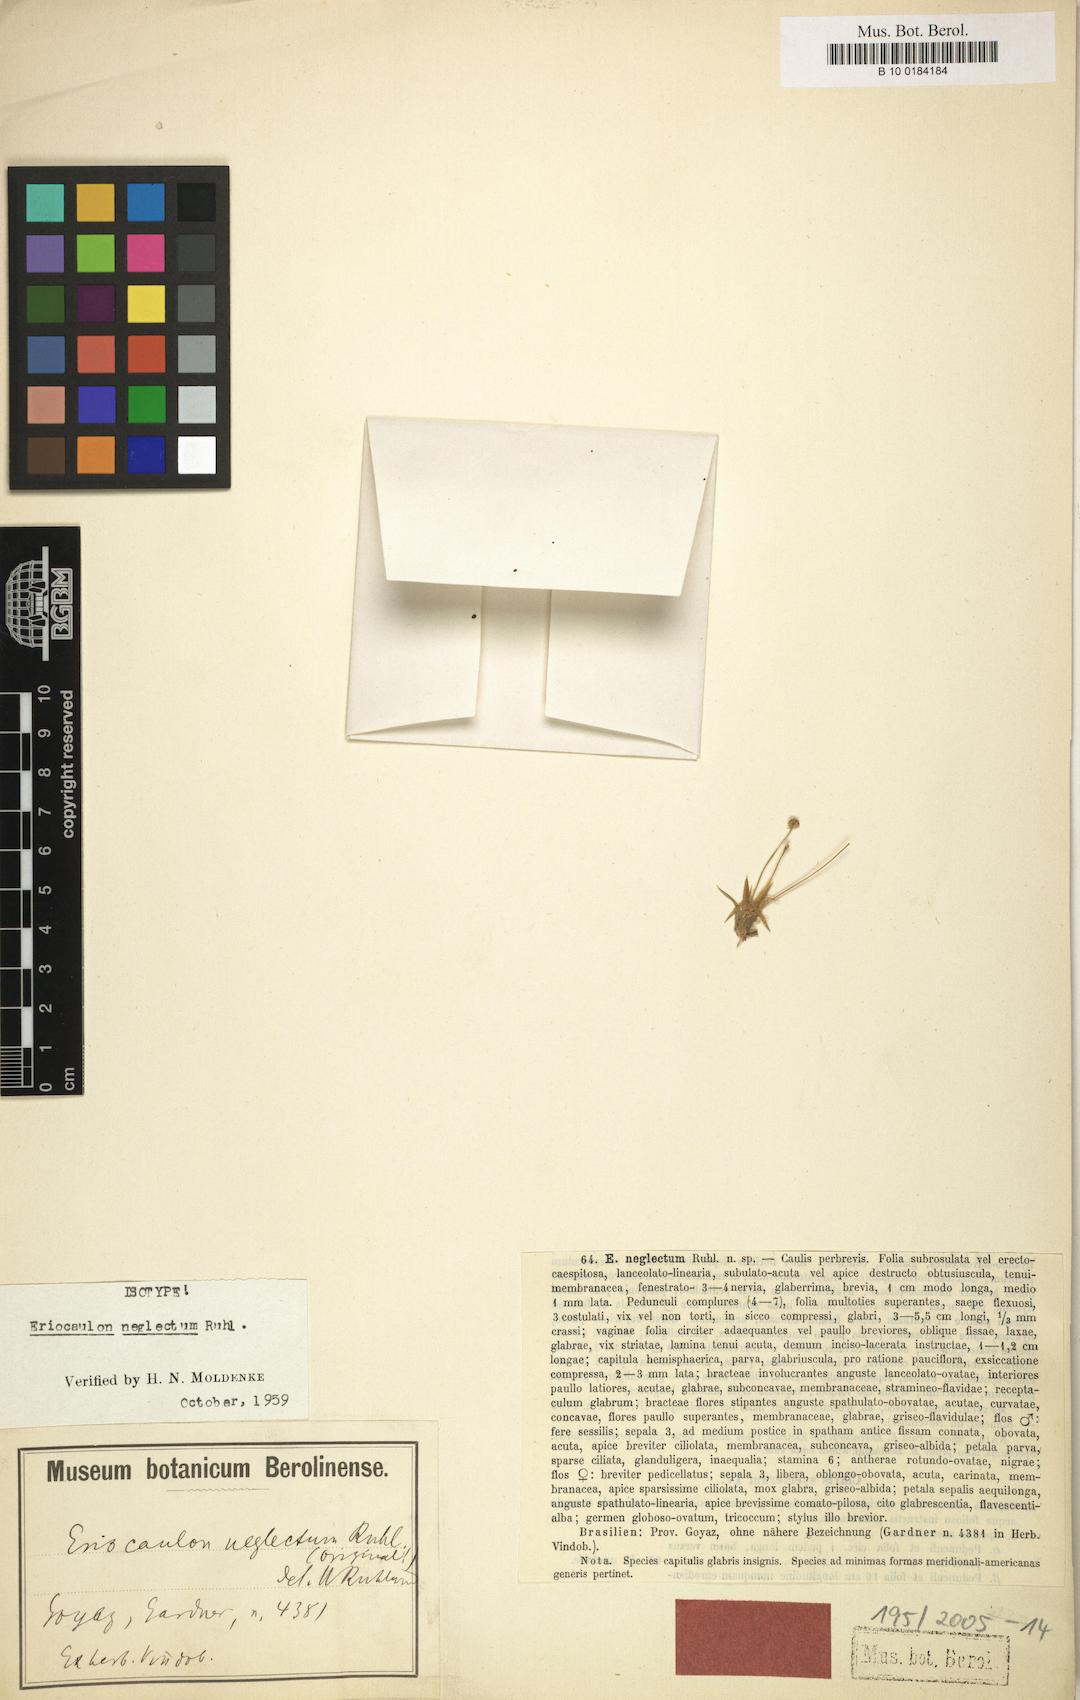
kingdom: Plantae
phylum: Tracheophyta
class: Liliopsida
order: Poales
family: Eriocaulaceae
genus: Eriocaulon
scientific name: Eriocaulon neglectum
